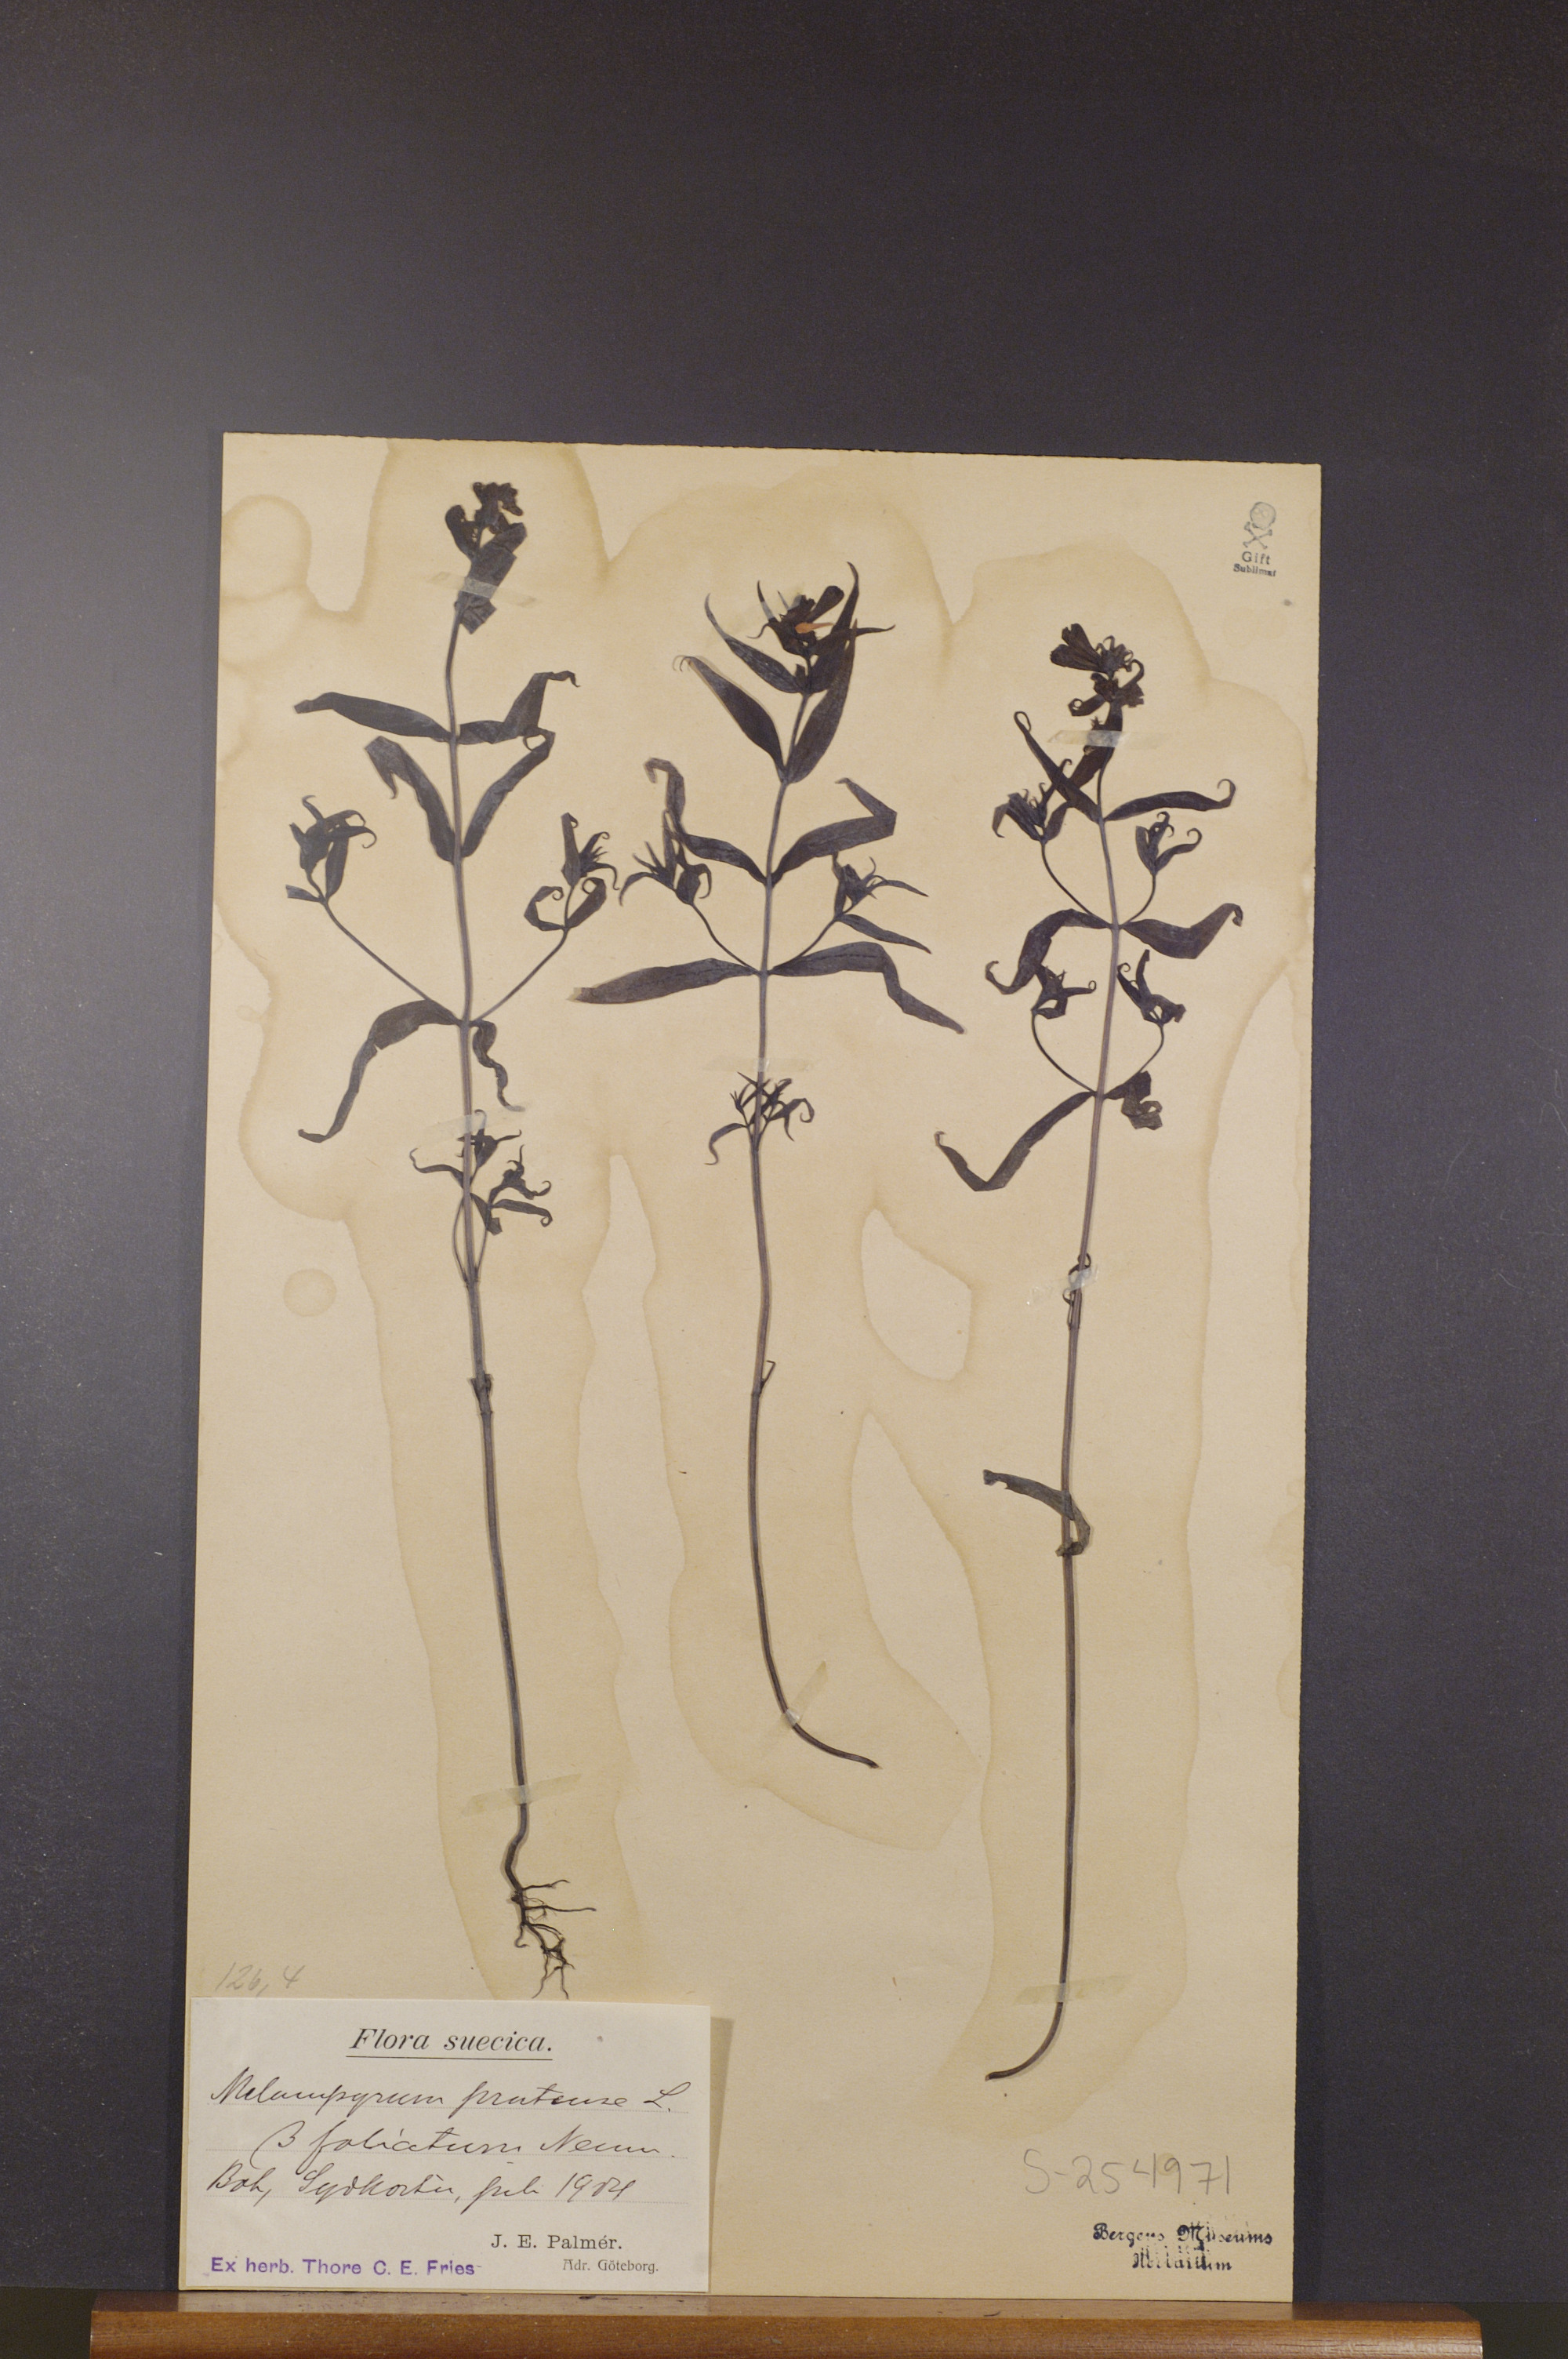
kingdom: Plantae
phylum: Tracheophyta
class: Magnoliopsida
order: Lamiales
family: Orobanchaceae
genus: Melampyrum
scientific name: Melampyrum pratense
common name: Common cow-wheat
